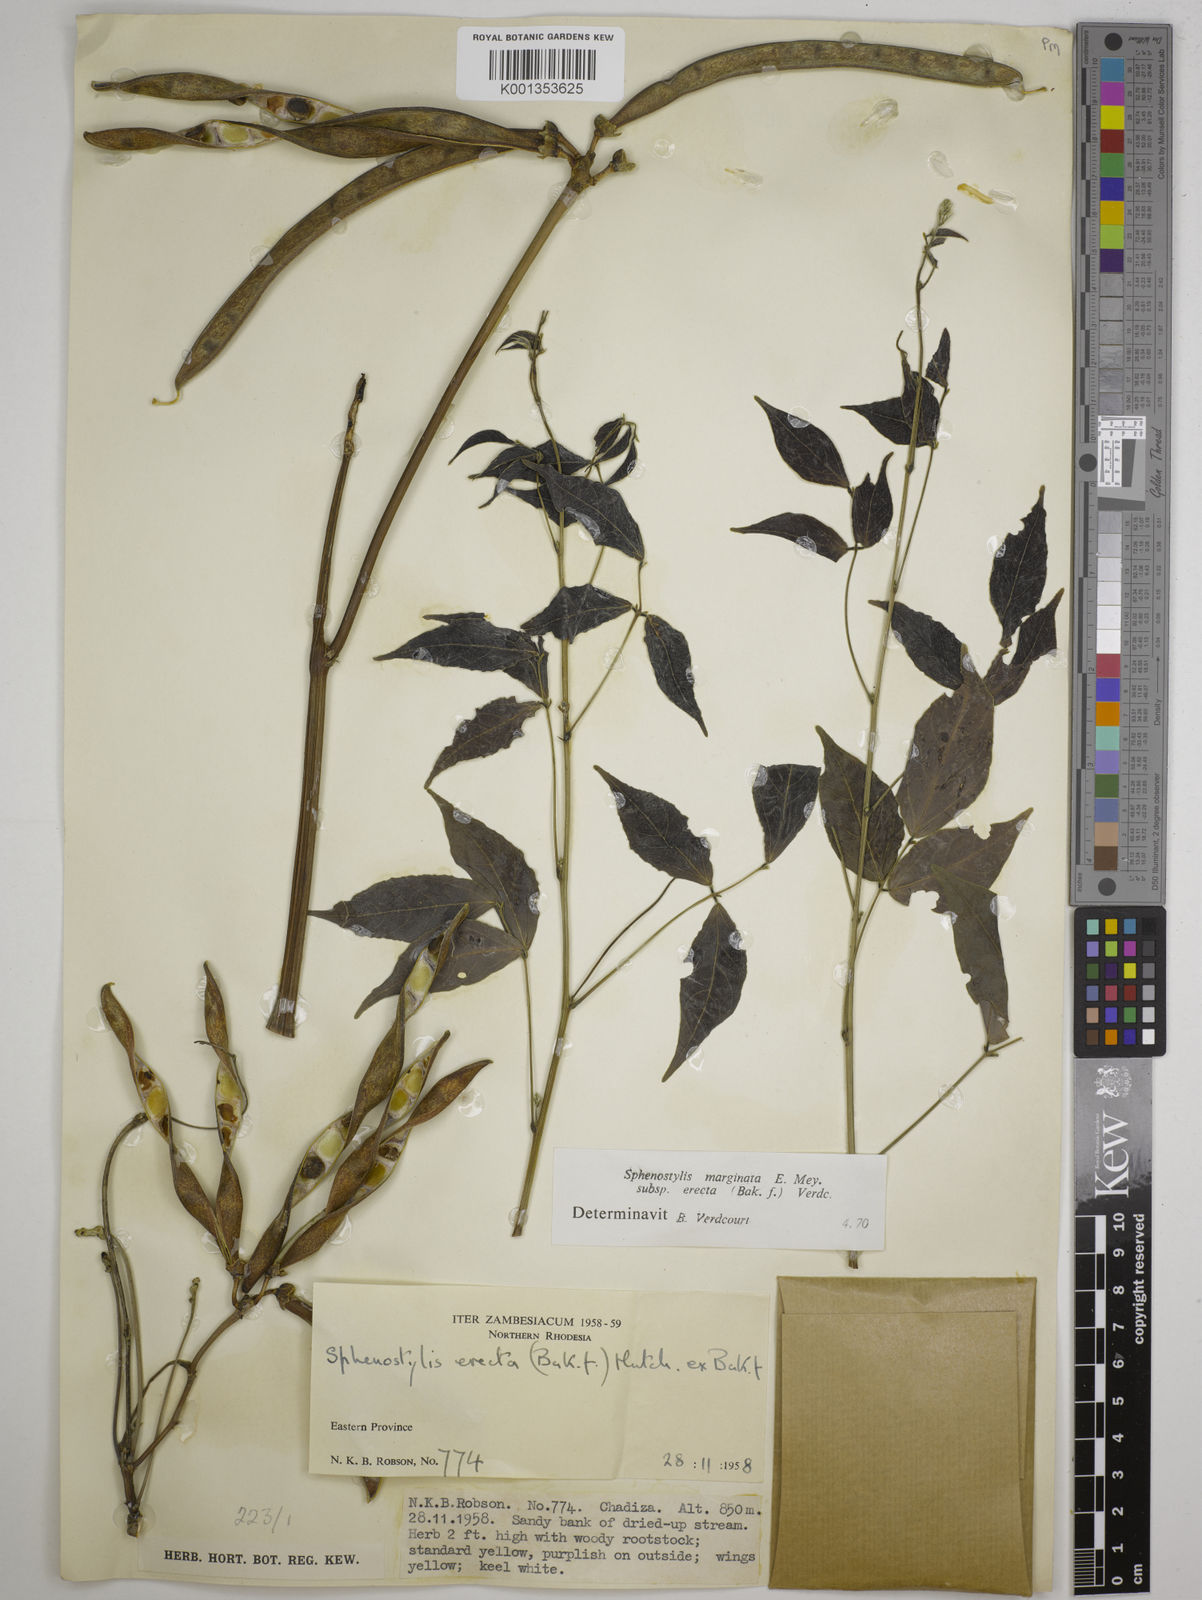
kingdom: Plantae
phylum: Tracheophyta
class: Magnoliopsida
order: Fabales
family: Fabaceae
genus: Sphenostylis
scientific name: Sphenostylis erecta
